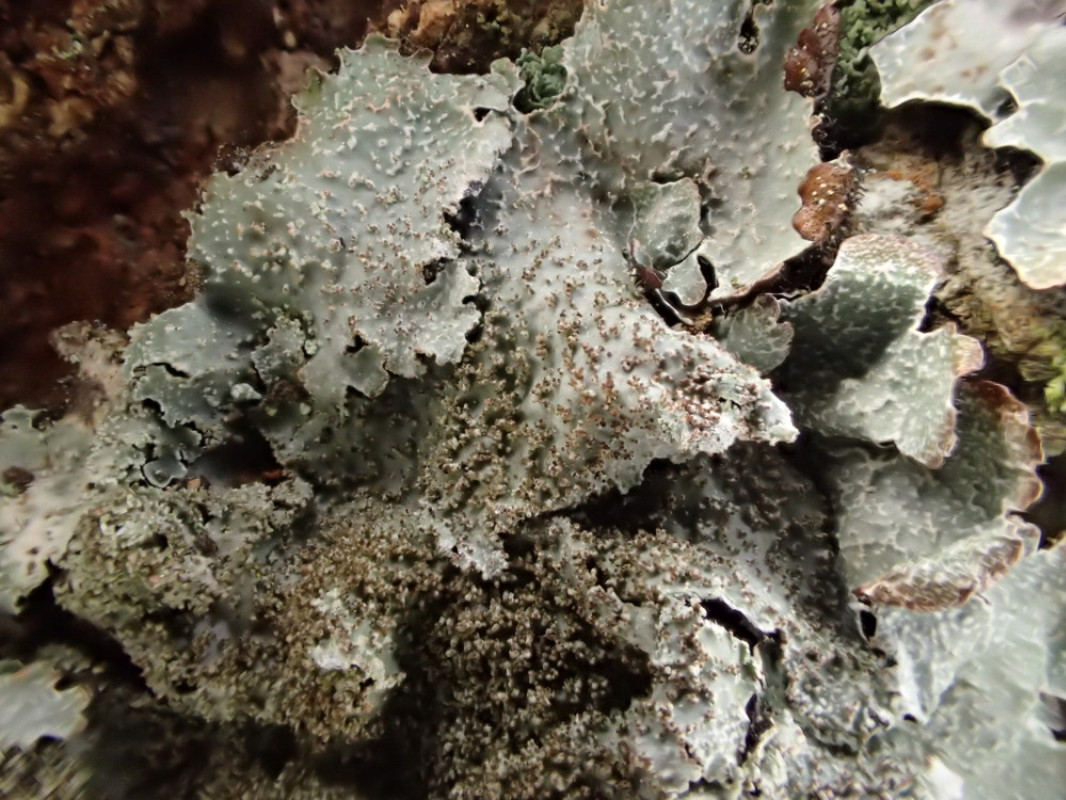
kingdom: Fungi
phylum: Ascomycota
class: Lecanoromycetes
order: Lecanorales
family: Parmeliaceae
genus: Parmelia
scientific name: Parmelia saxatilis
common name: farve-skållav
